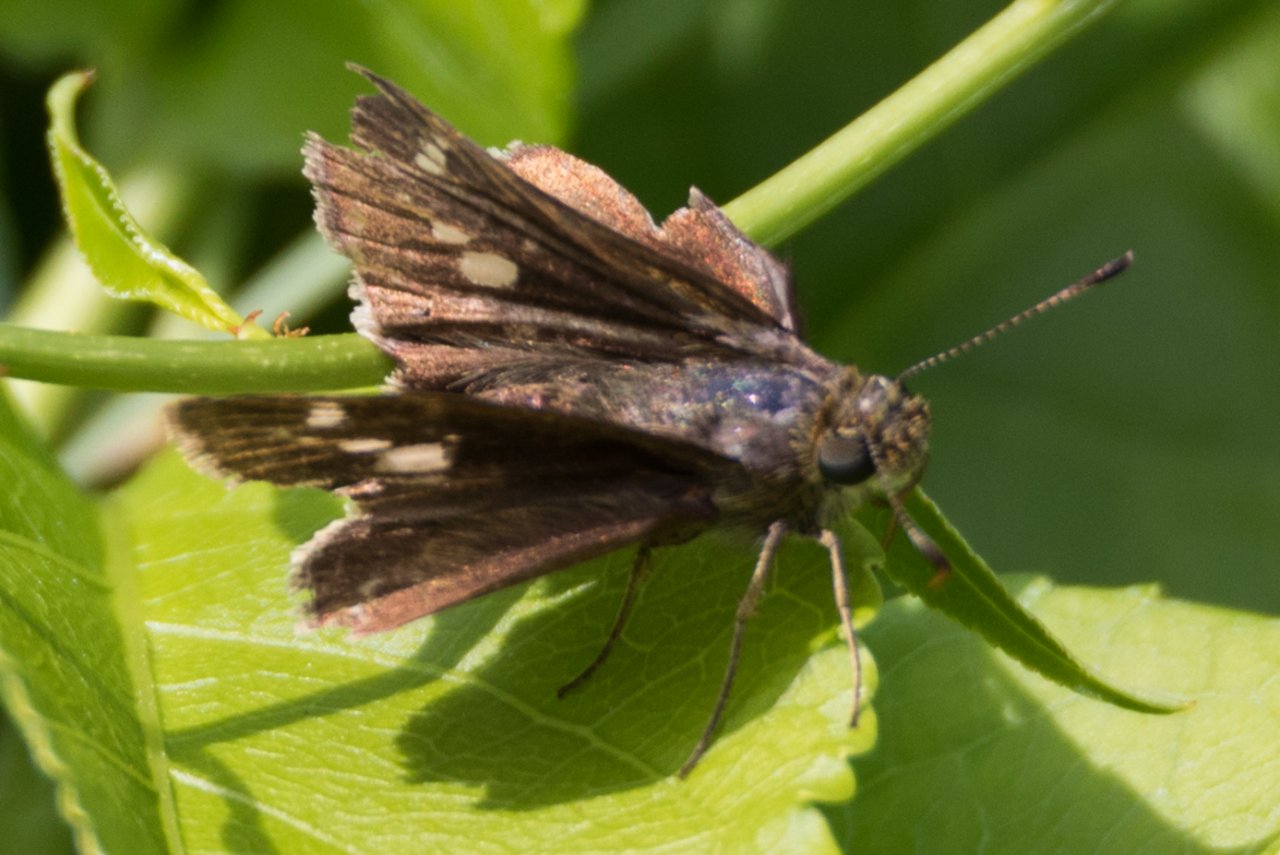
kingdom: Animalia
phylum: Arthropoda
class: Insecta
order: Lepidoptera
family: Hesperiidae
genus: Vernia
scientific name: Vernia verna
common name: Little Glassywing
